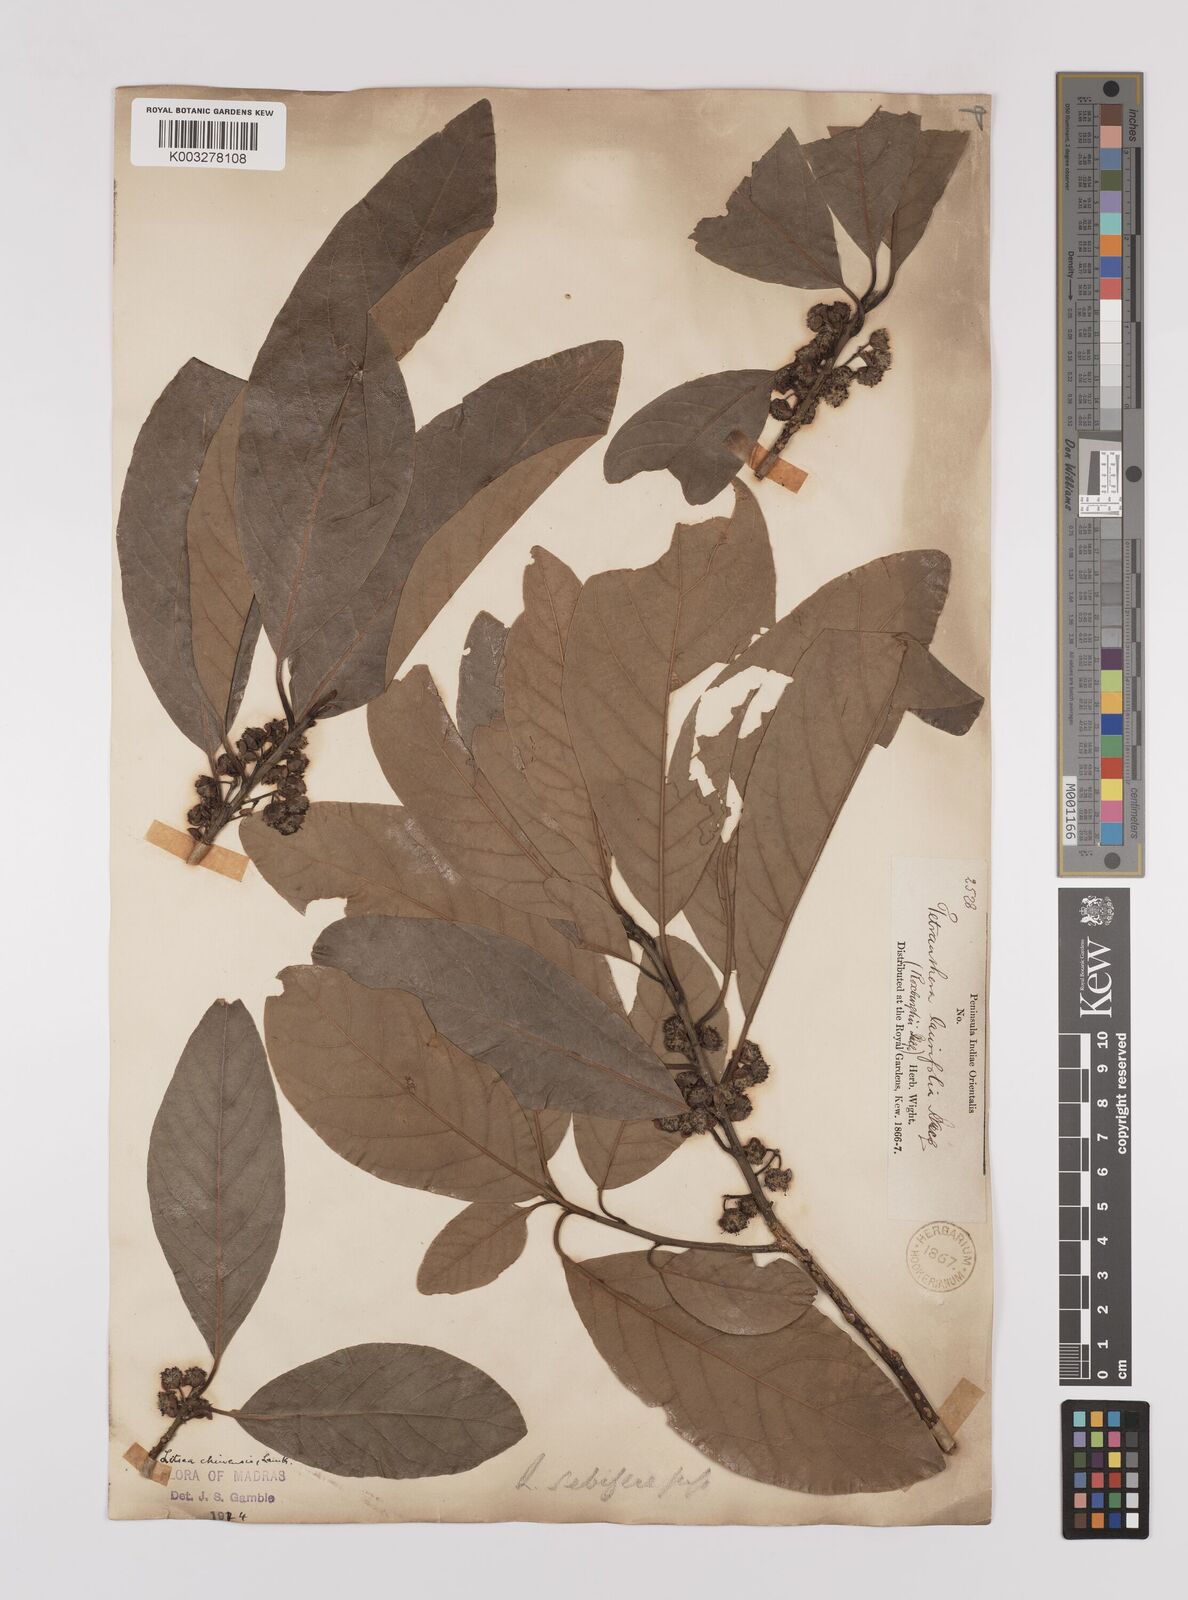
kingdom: Plantae
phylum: Tracheophyta
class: Magnoliopsida
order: Laurales
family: Lauraceae
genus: Litsea
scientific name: Litsea
